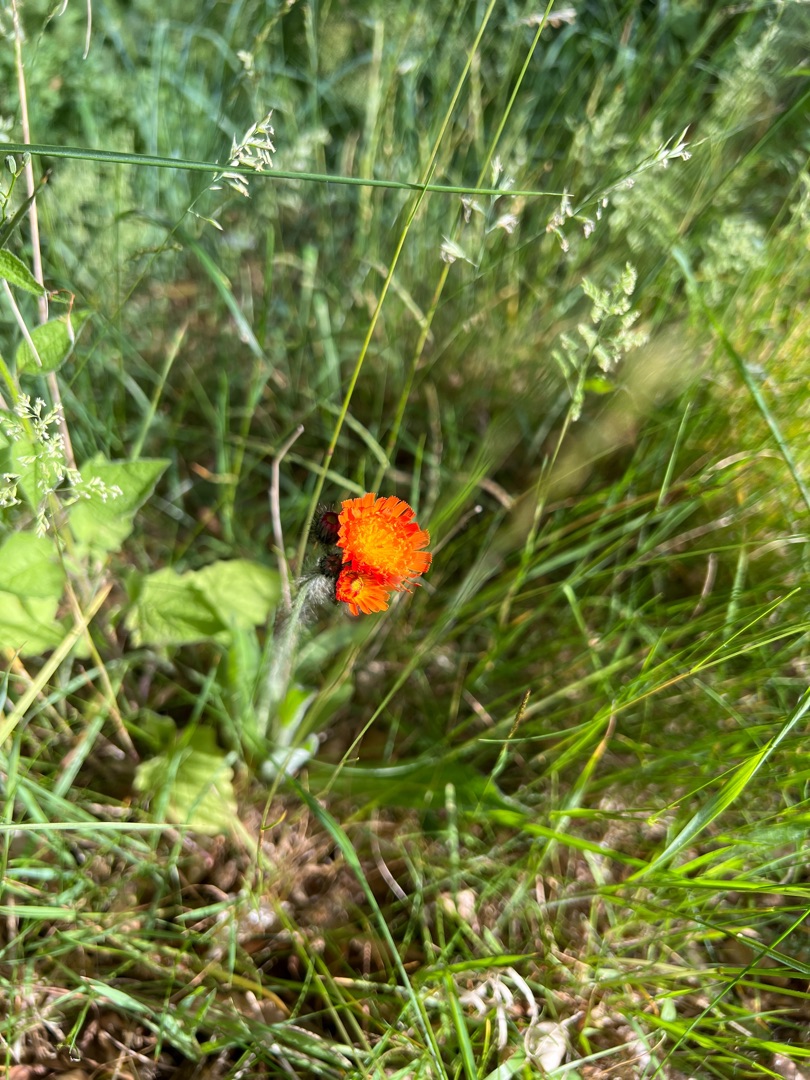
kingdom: Plantae
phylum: Tracheophyta
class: Magnoliopsida
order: Asterales
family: Asteraceae
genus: Pilosella
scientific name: Pilosella aurantiaca
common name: Pomerans-høgeurt
